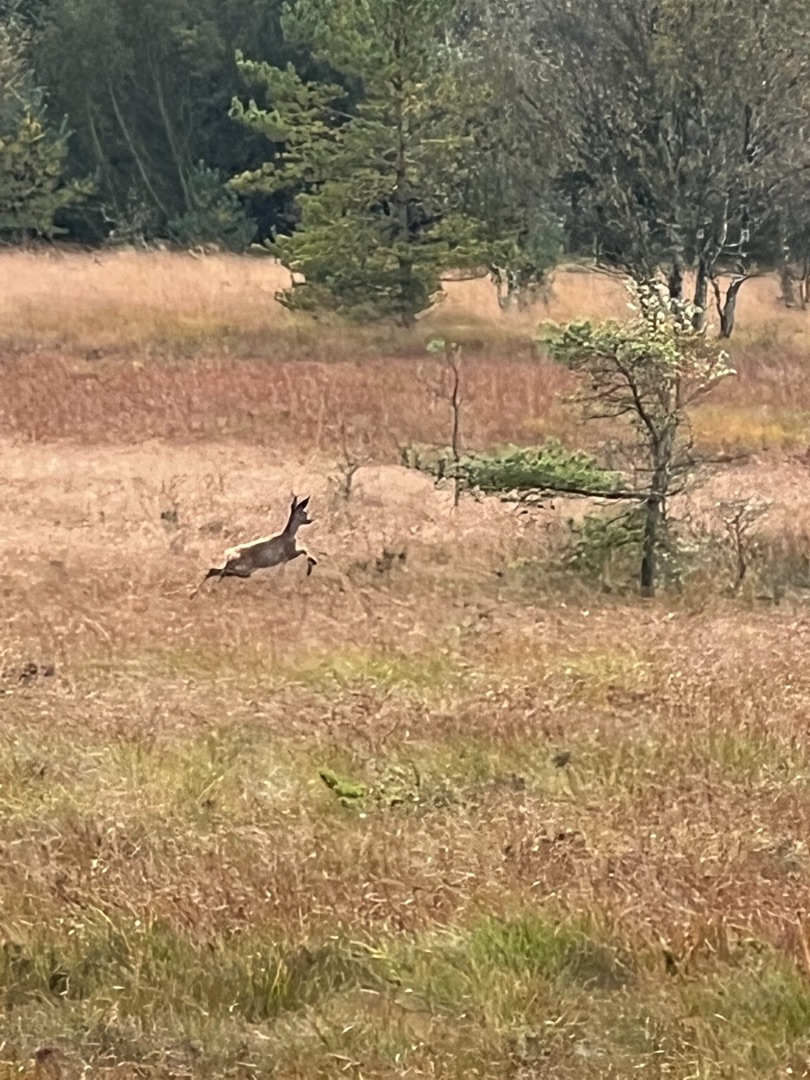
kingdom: Animalia
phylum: Chordata
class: Mammalia
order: Artiodactyla
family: Cervidae
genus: Capreolus
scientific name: Capreolus capreolus
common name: Rådyr
